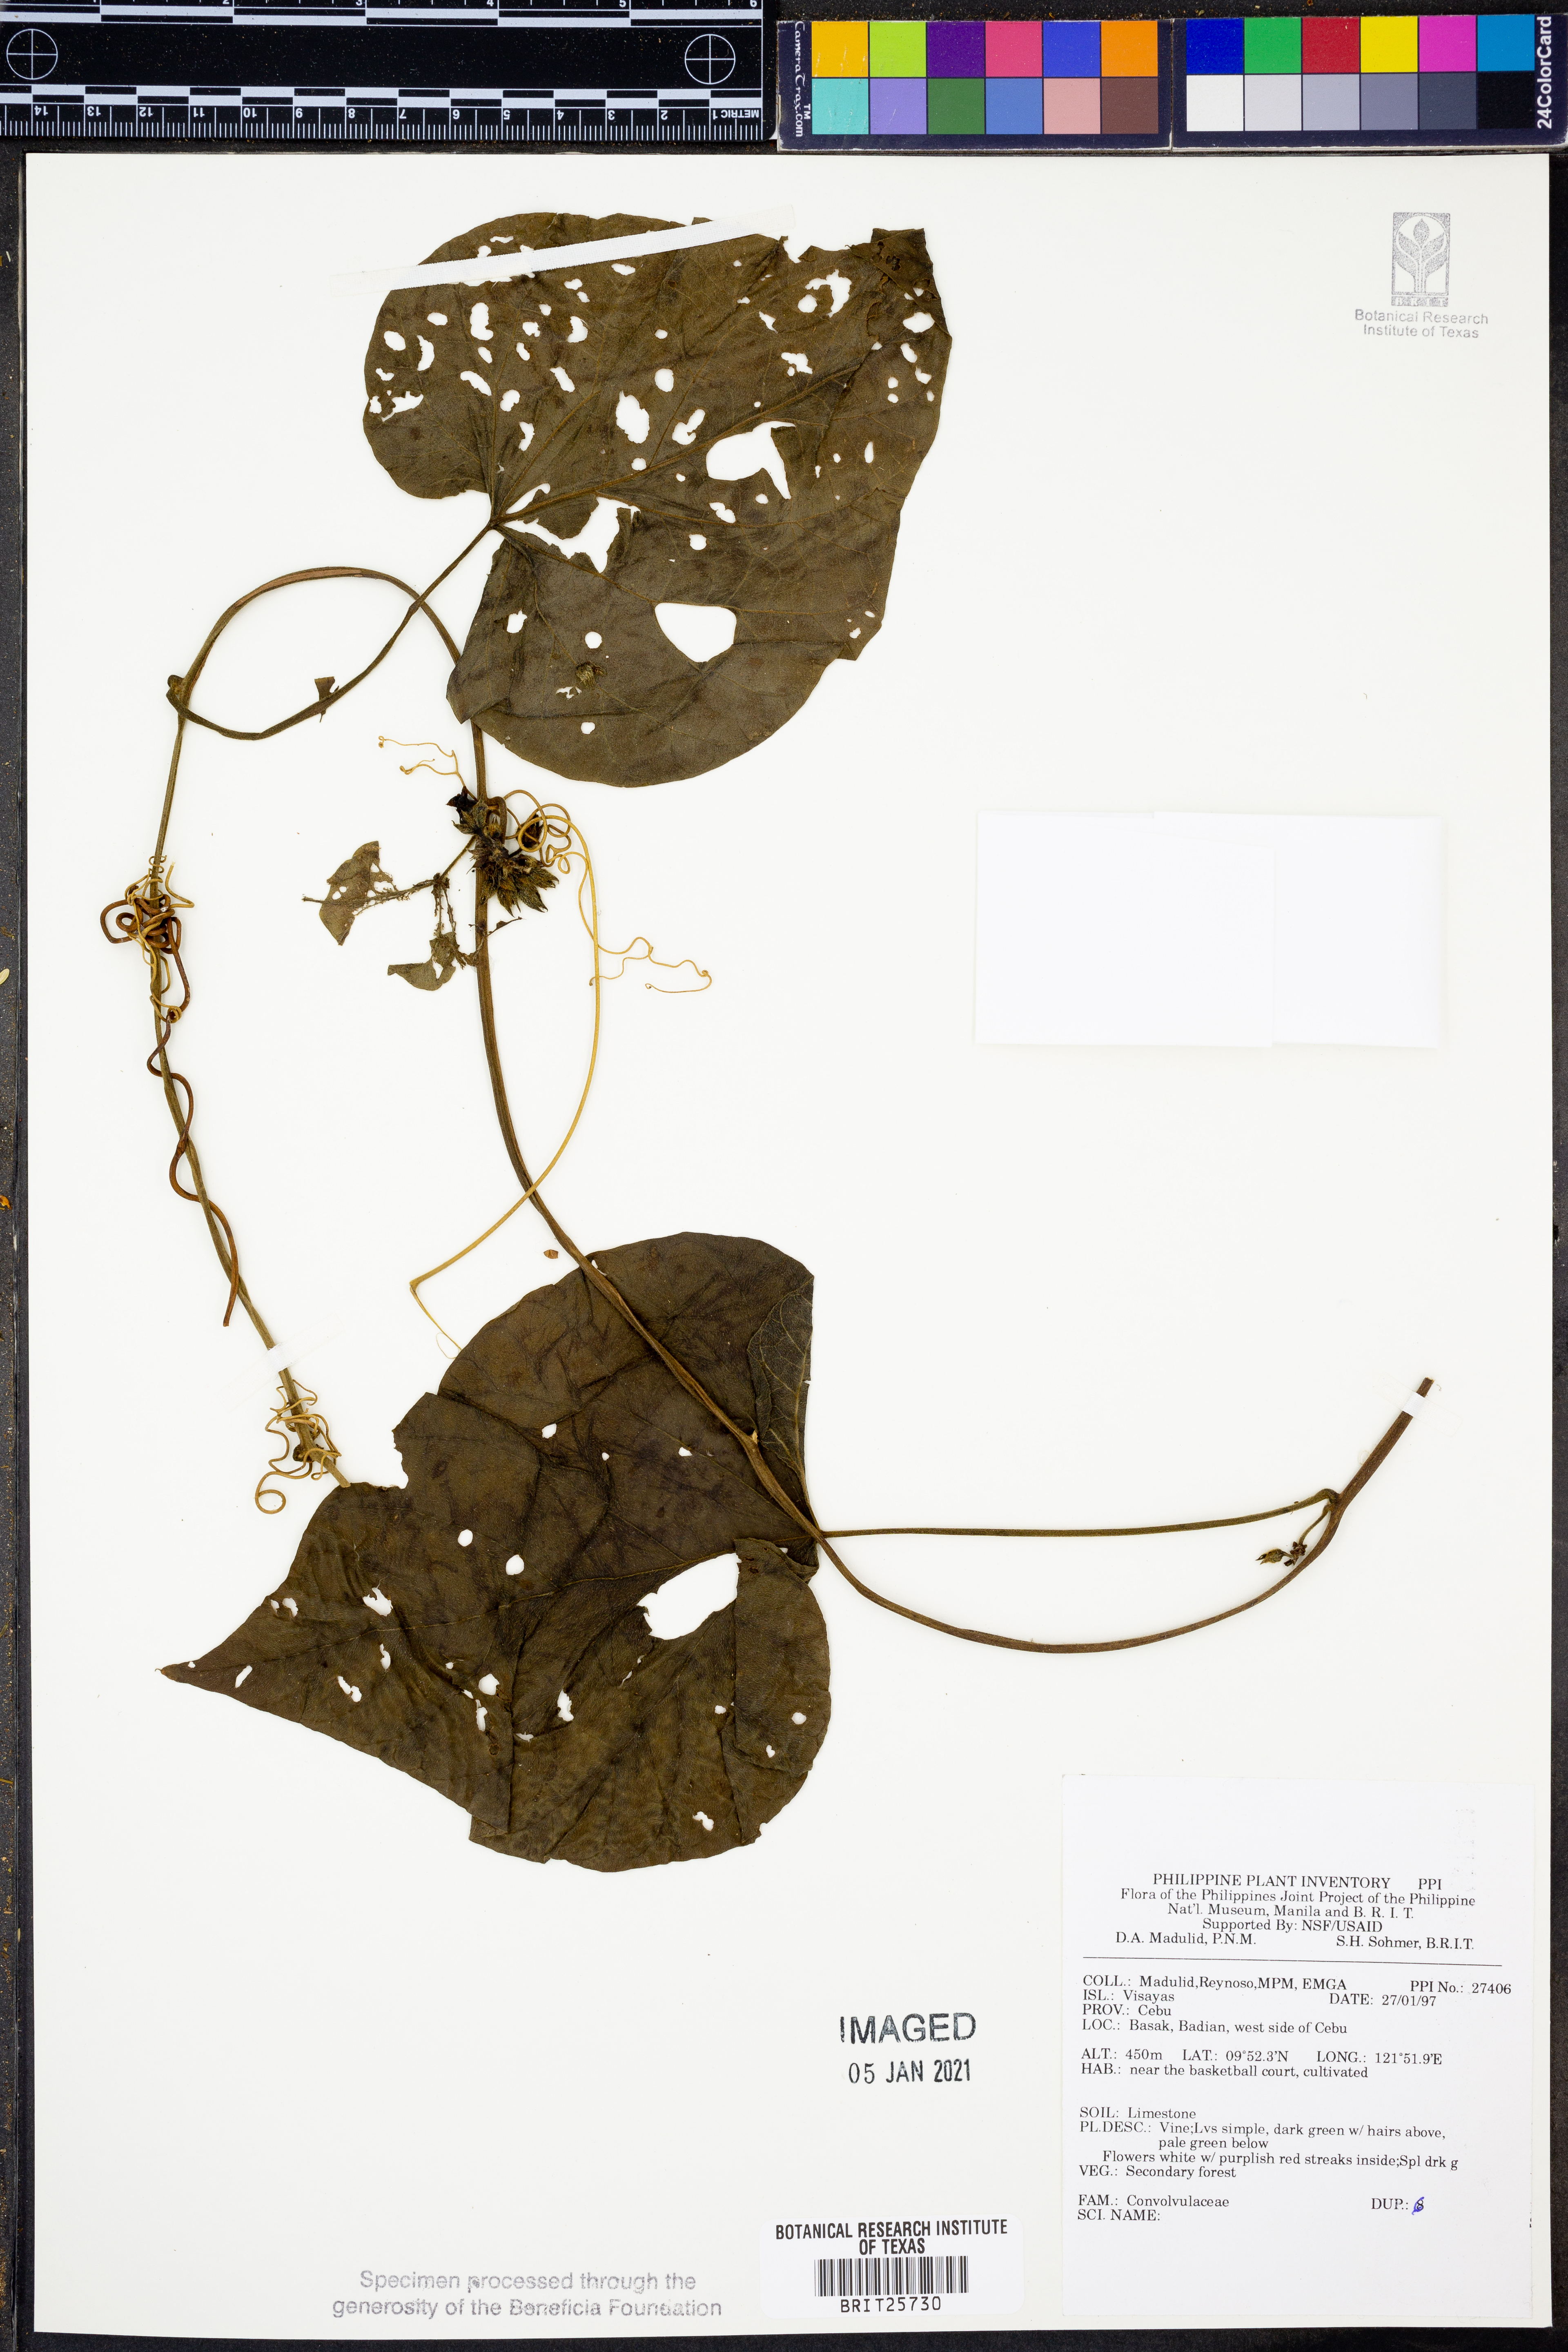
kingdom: Plantae
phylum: Tracheophyta
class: Magnoliopsida
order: Solanales
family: Convolvulaceae
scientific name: Convolvulaceae
